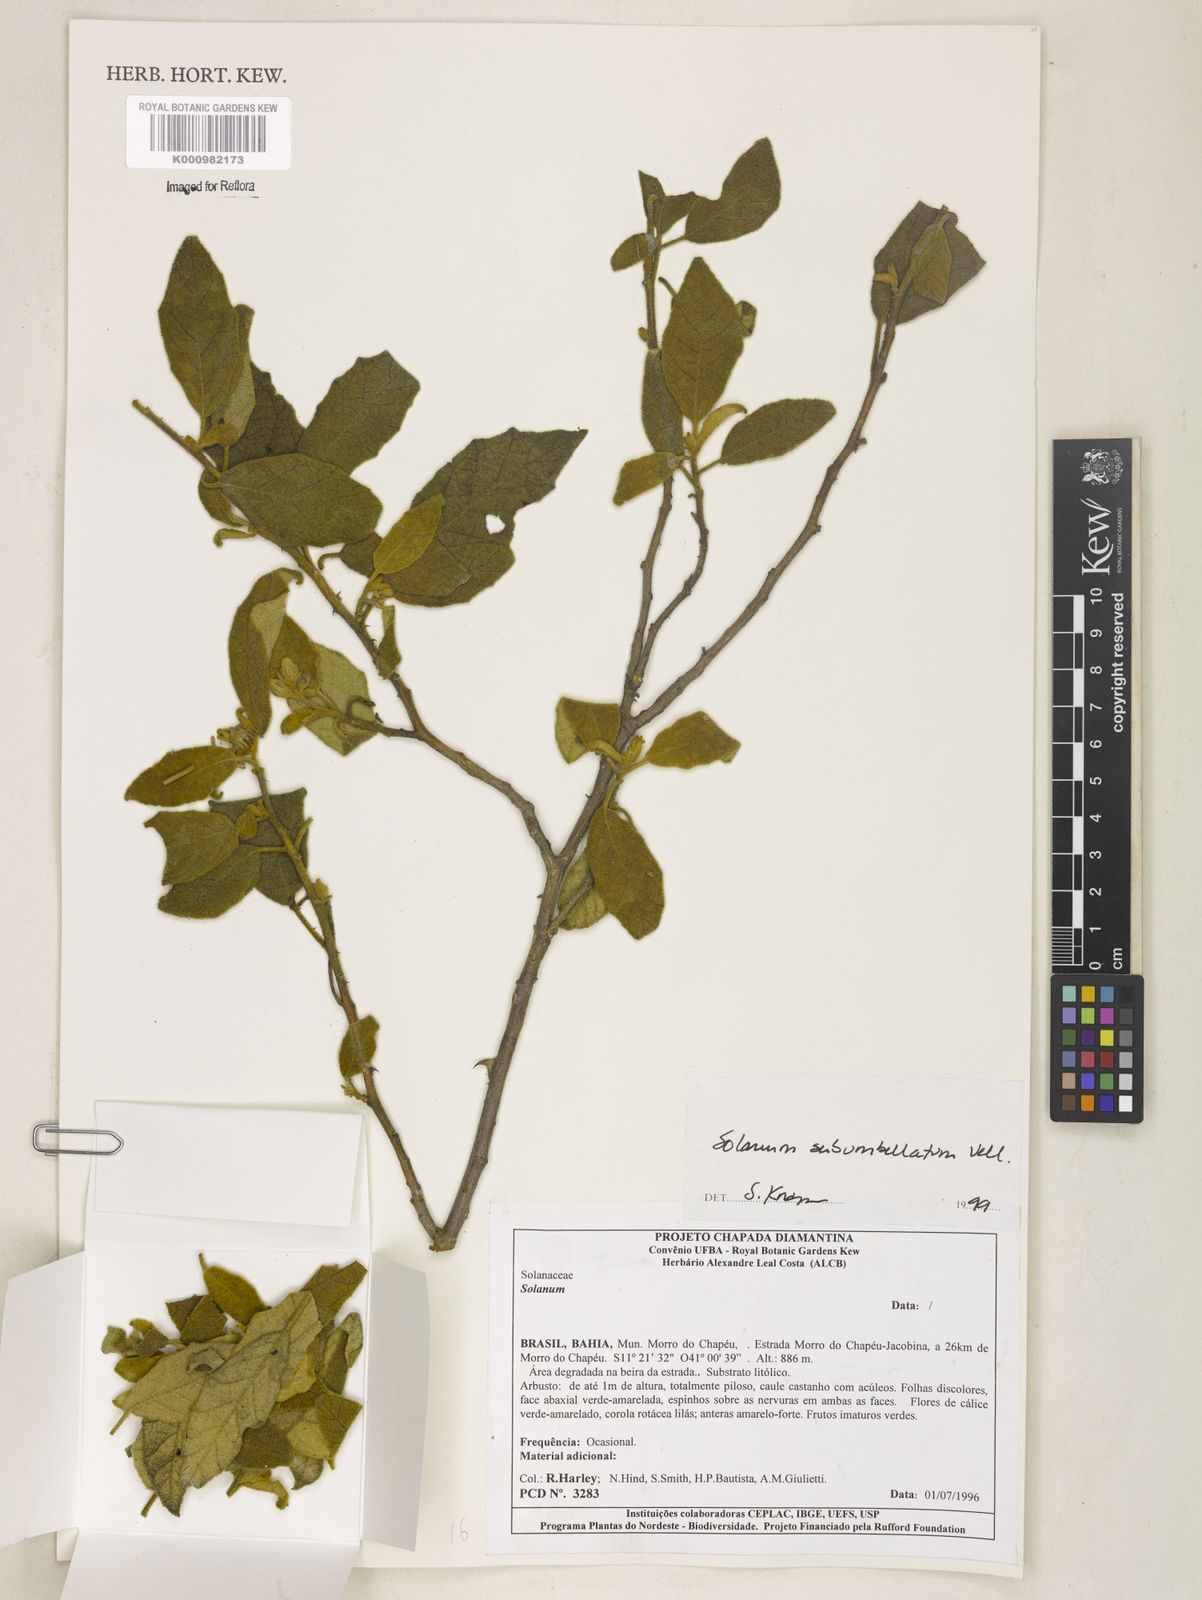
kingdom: Plantae
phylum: Tracheophyta
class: Magnoliopsida
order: Solanales
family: Solanaceae
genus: Solanum
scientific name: Solanum subumbellatum
